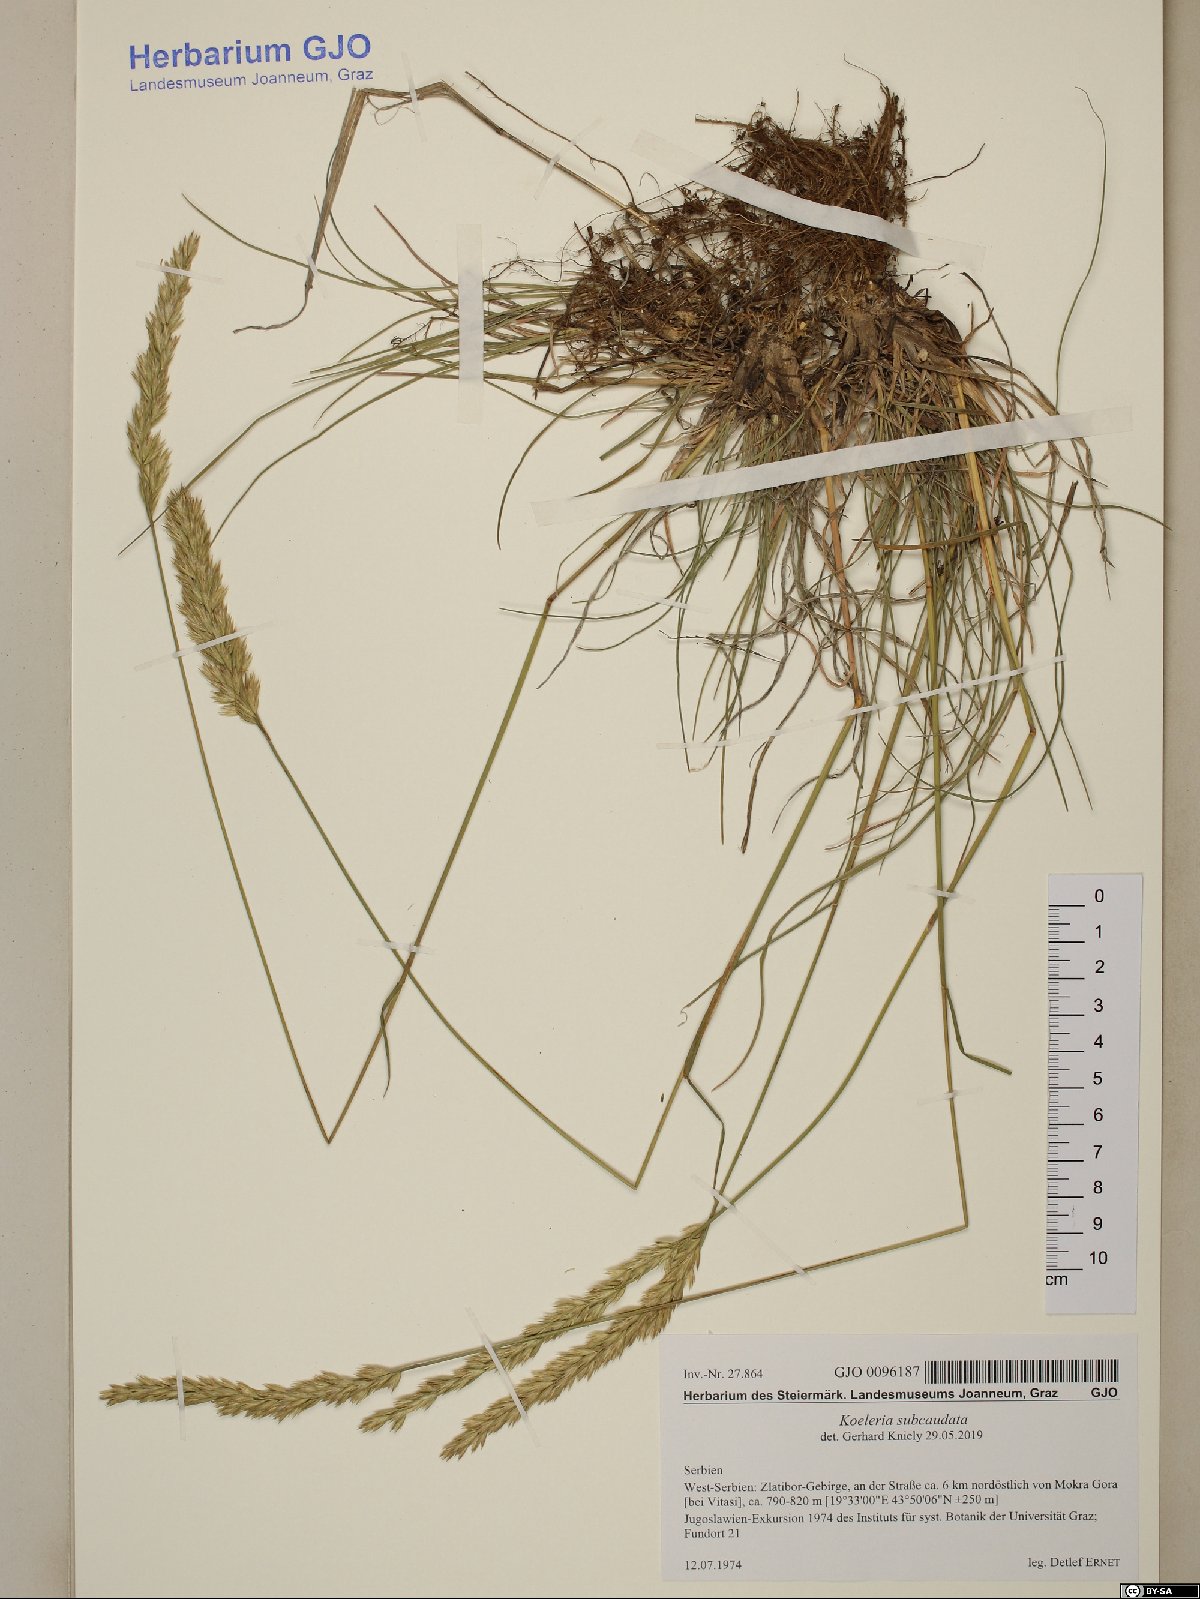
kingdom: Plantae
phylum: Tracheophyta
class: Liliopsida
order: Poales
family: Poaceae
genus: Koeleria
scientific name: Koeleria splendens
